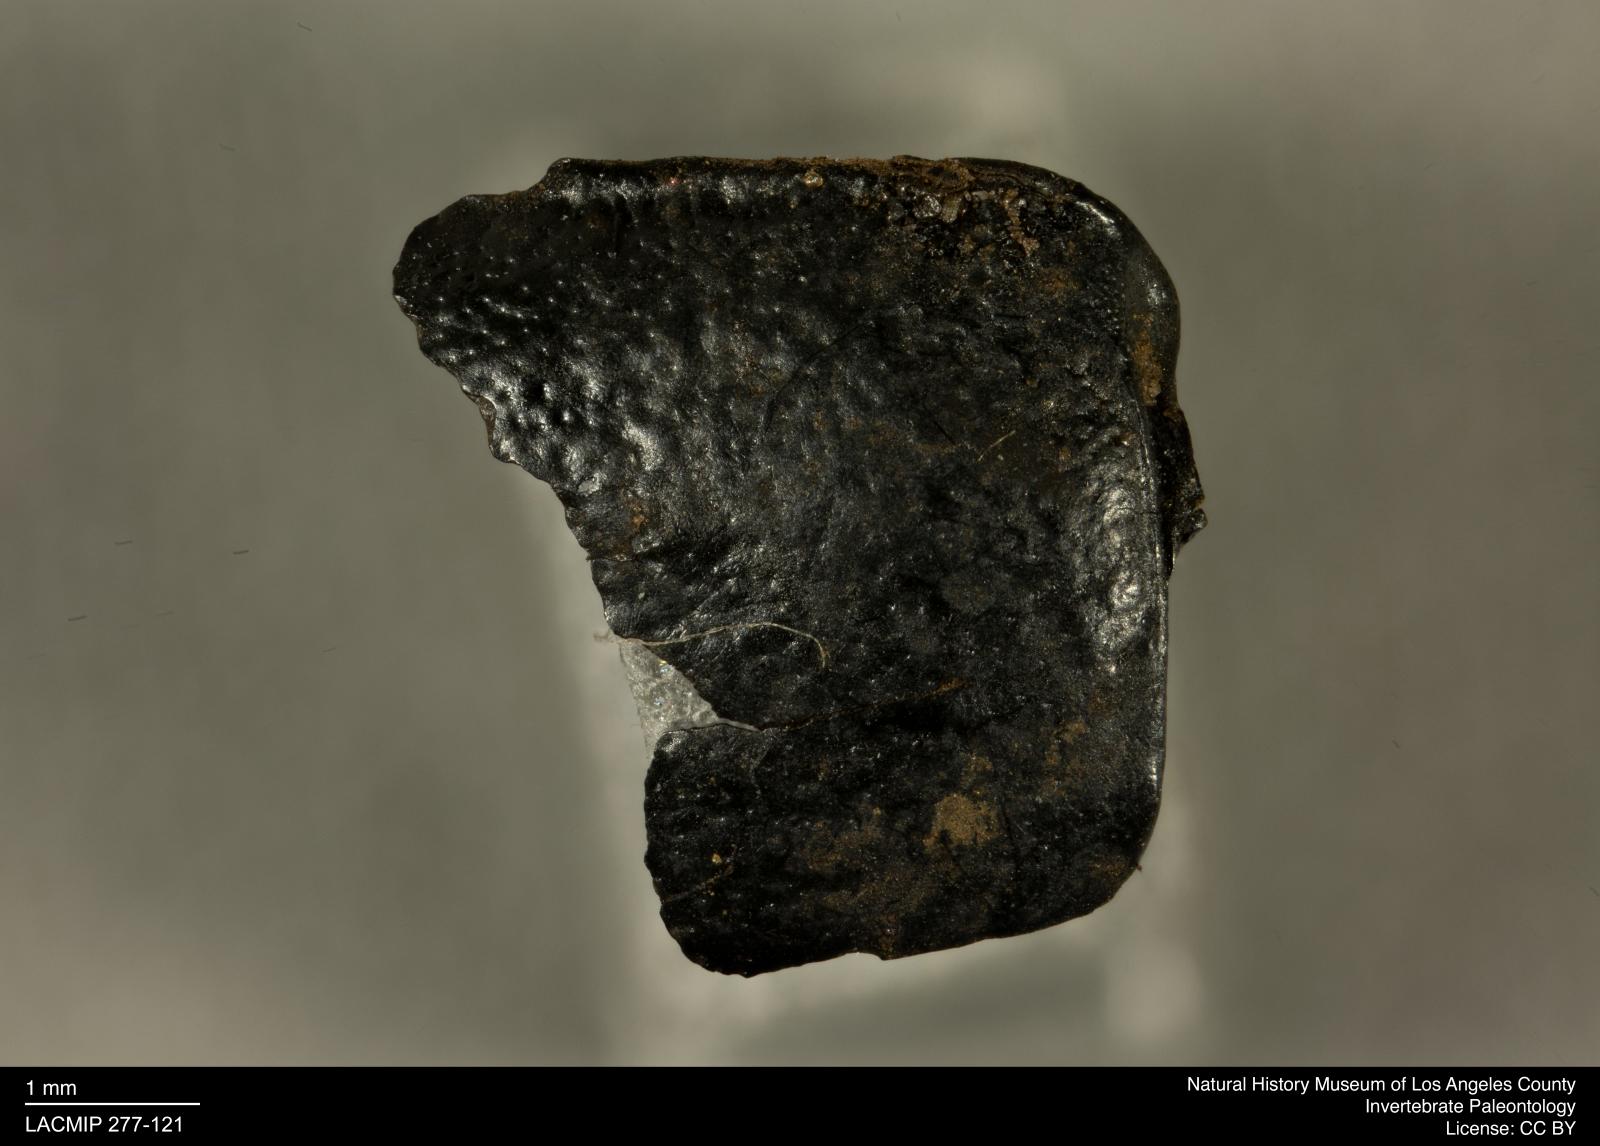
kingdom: Animalia
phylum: Arthropoda
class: Insecta
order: Coleoptera
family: Tenebrionidae
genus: Coniontis
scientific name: Coniontis abdominalis
